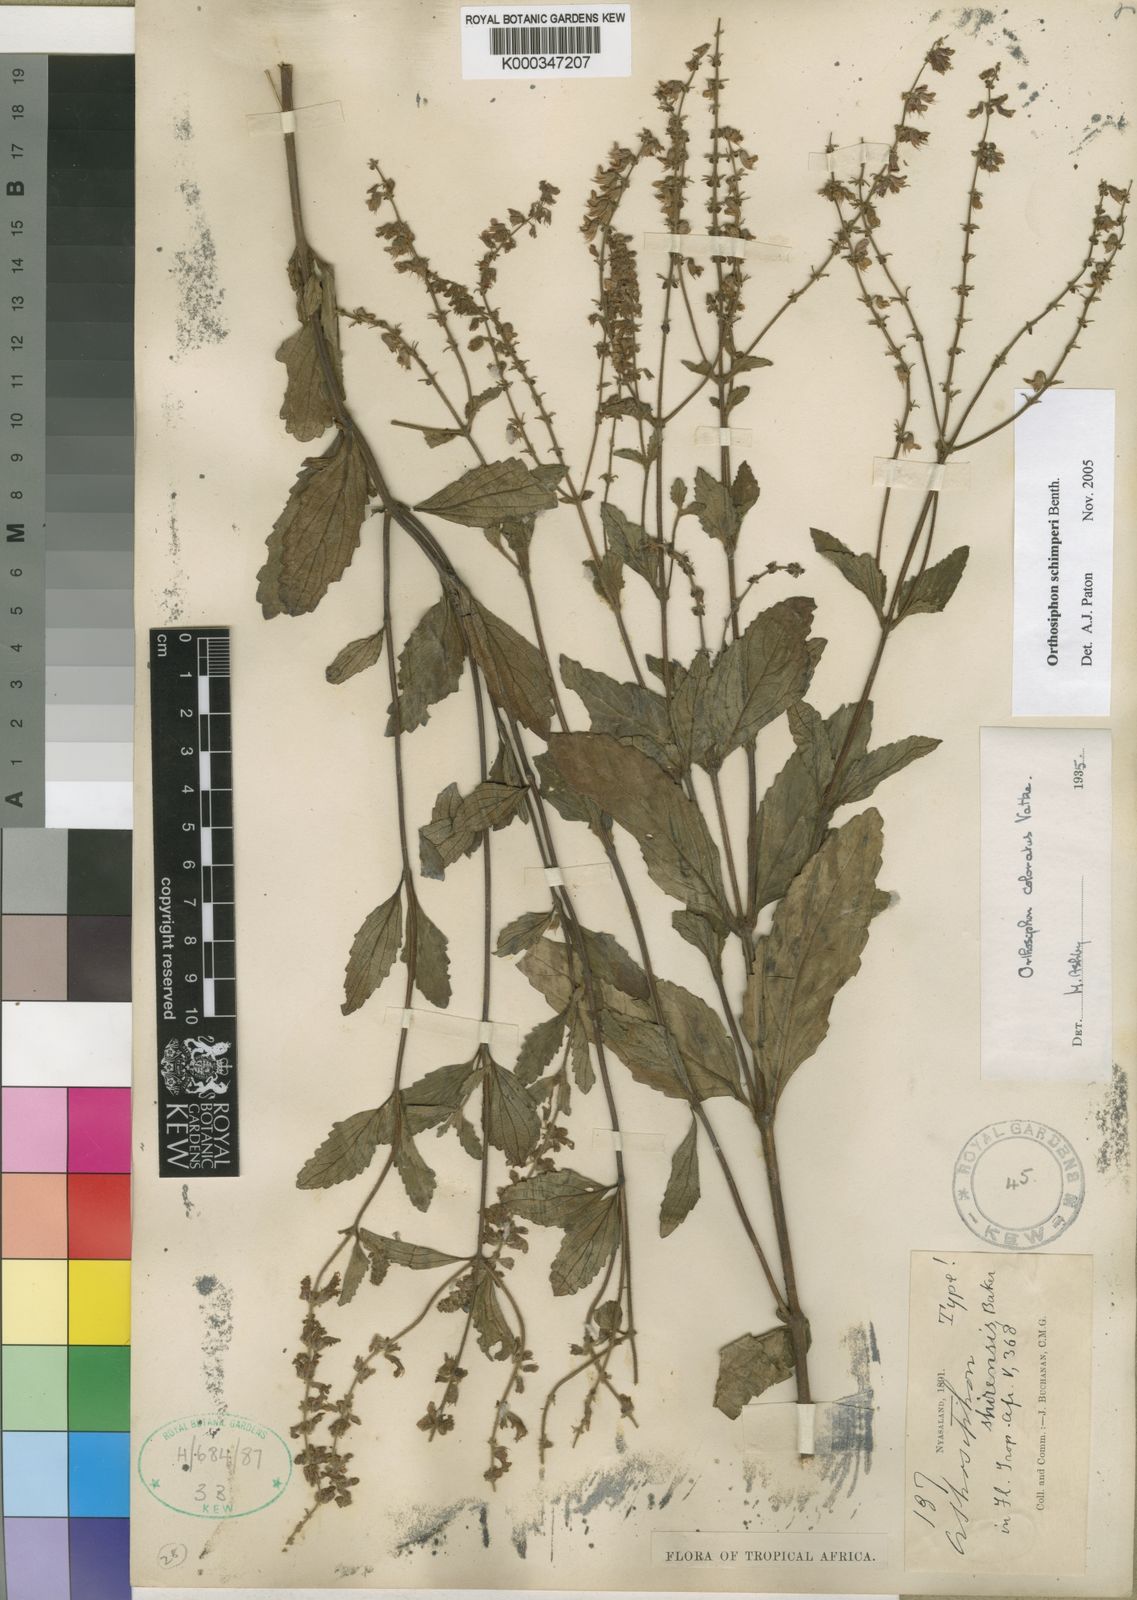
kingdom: Plantae
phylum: Tracheophyta
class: Magnoliopsida
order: Lamiales
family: Lamiaceae
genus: Orthosiphon
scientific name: Orthosiphon schimperi
